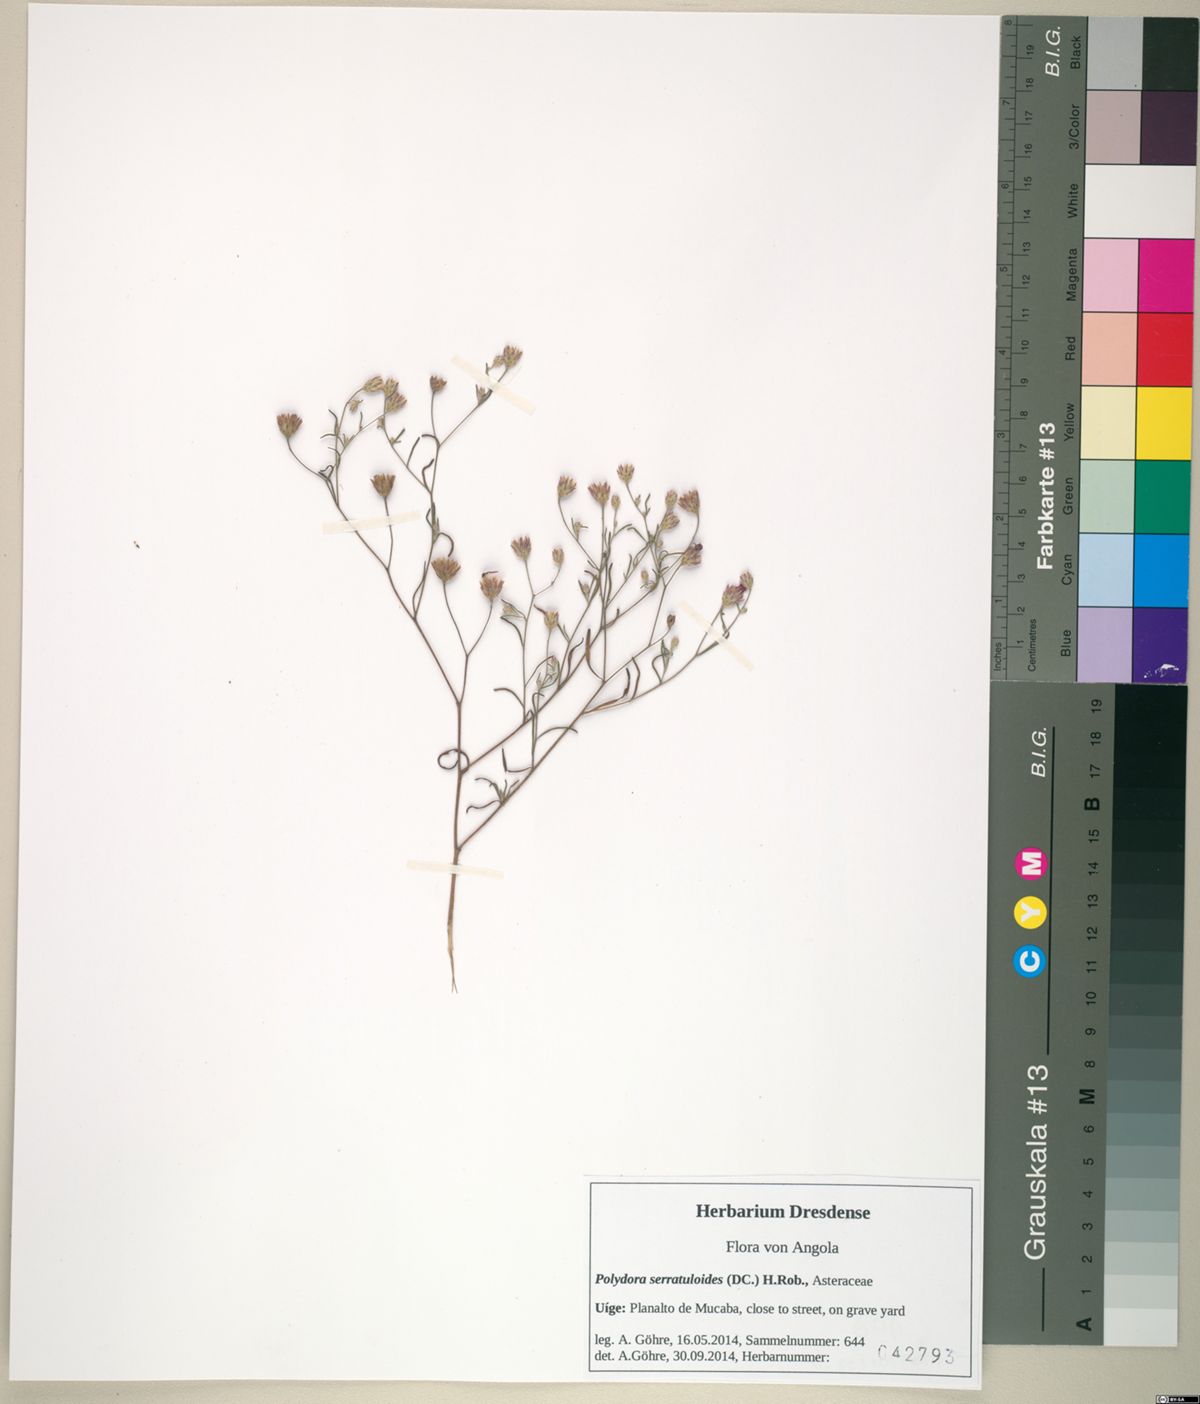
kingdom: Plantae
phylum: Tracheophyta
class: Magnoliopsida
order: Asterales
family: Asteraceae
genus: Crystallopollen
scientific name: Crystallopollen serratuloides
